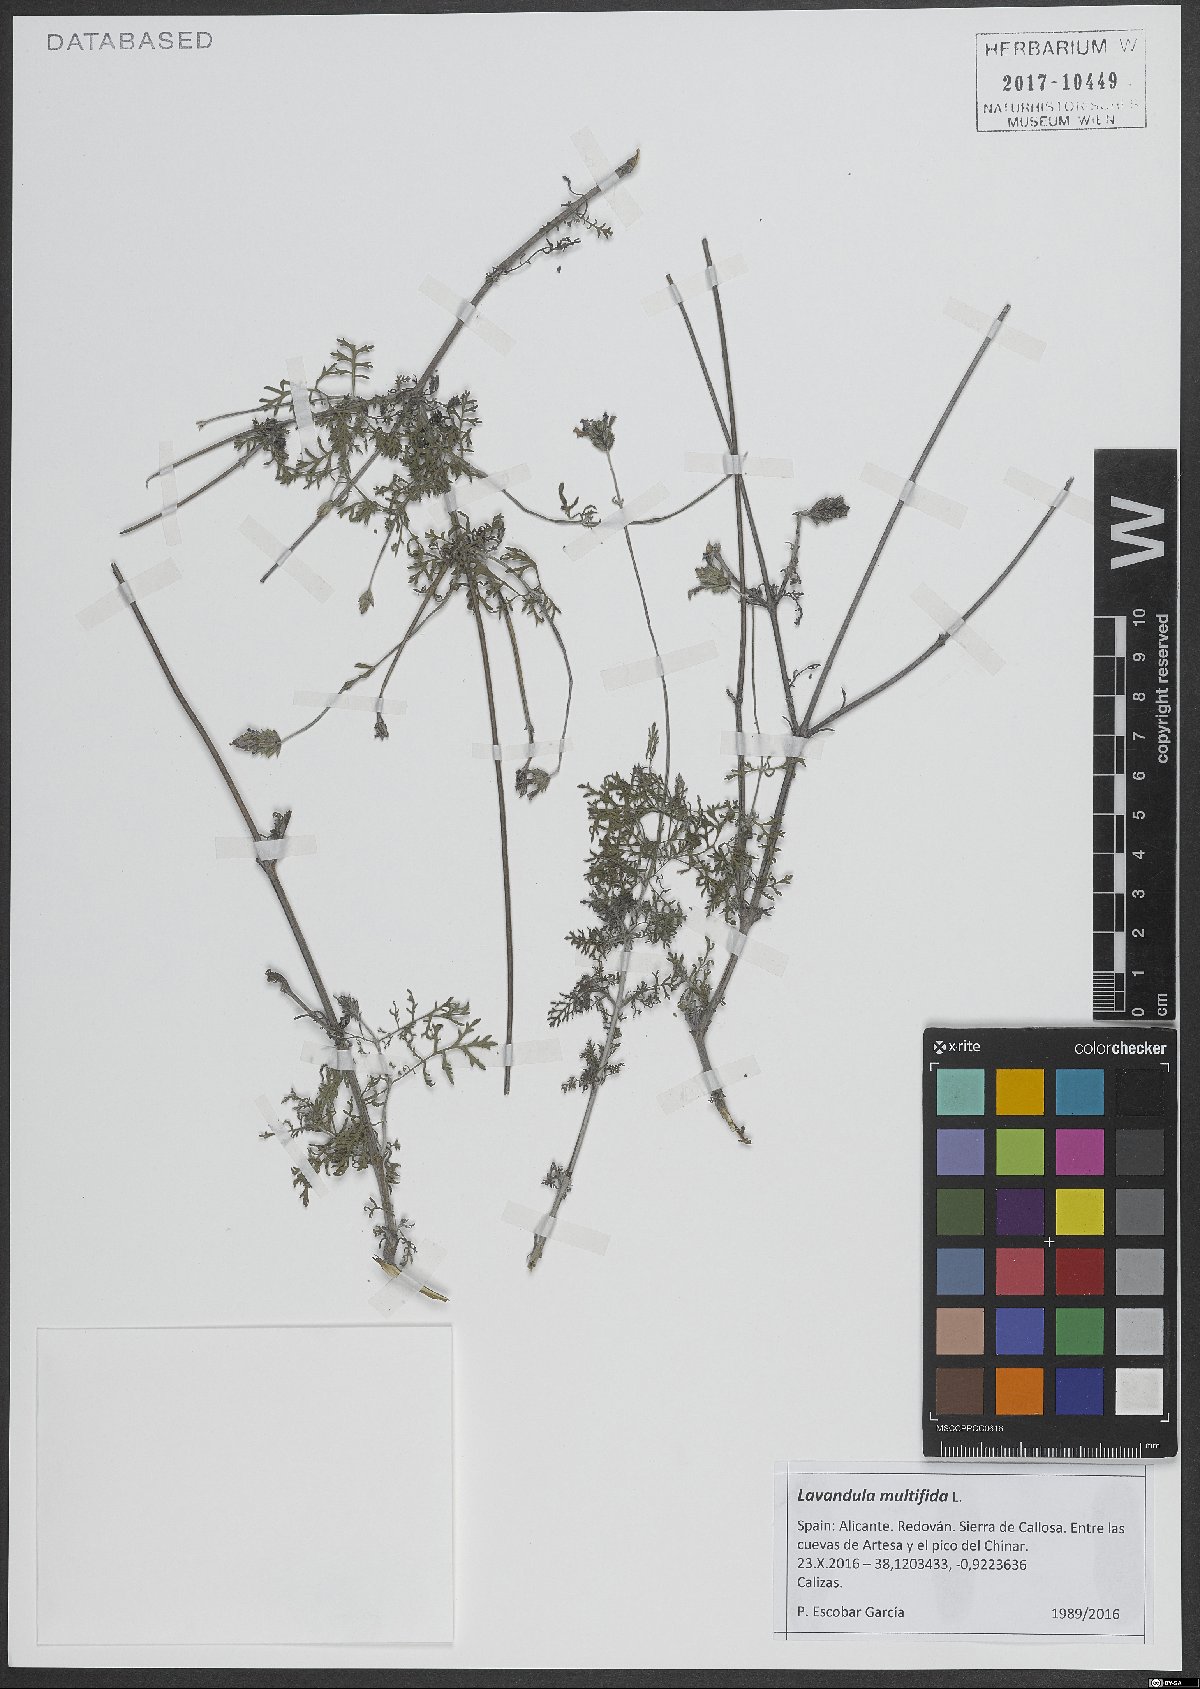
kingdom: Plantae
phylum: Tracheophyta
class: Magnoliopsida
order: Lamiales
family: Lamiaceae
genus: Lavandula
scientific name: Lavandula multifida
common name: Fern-leaf lavender
